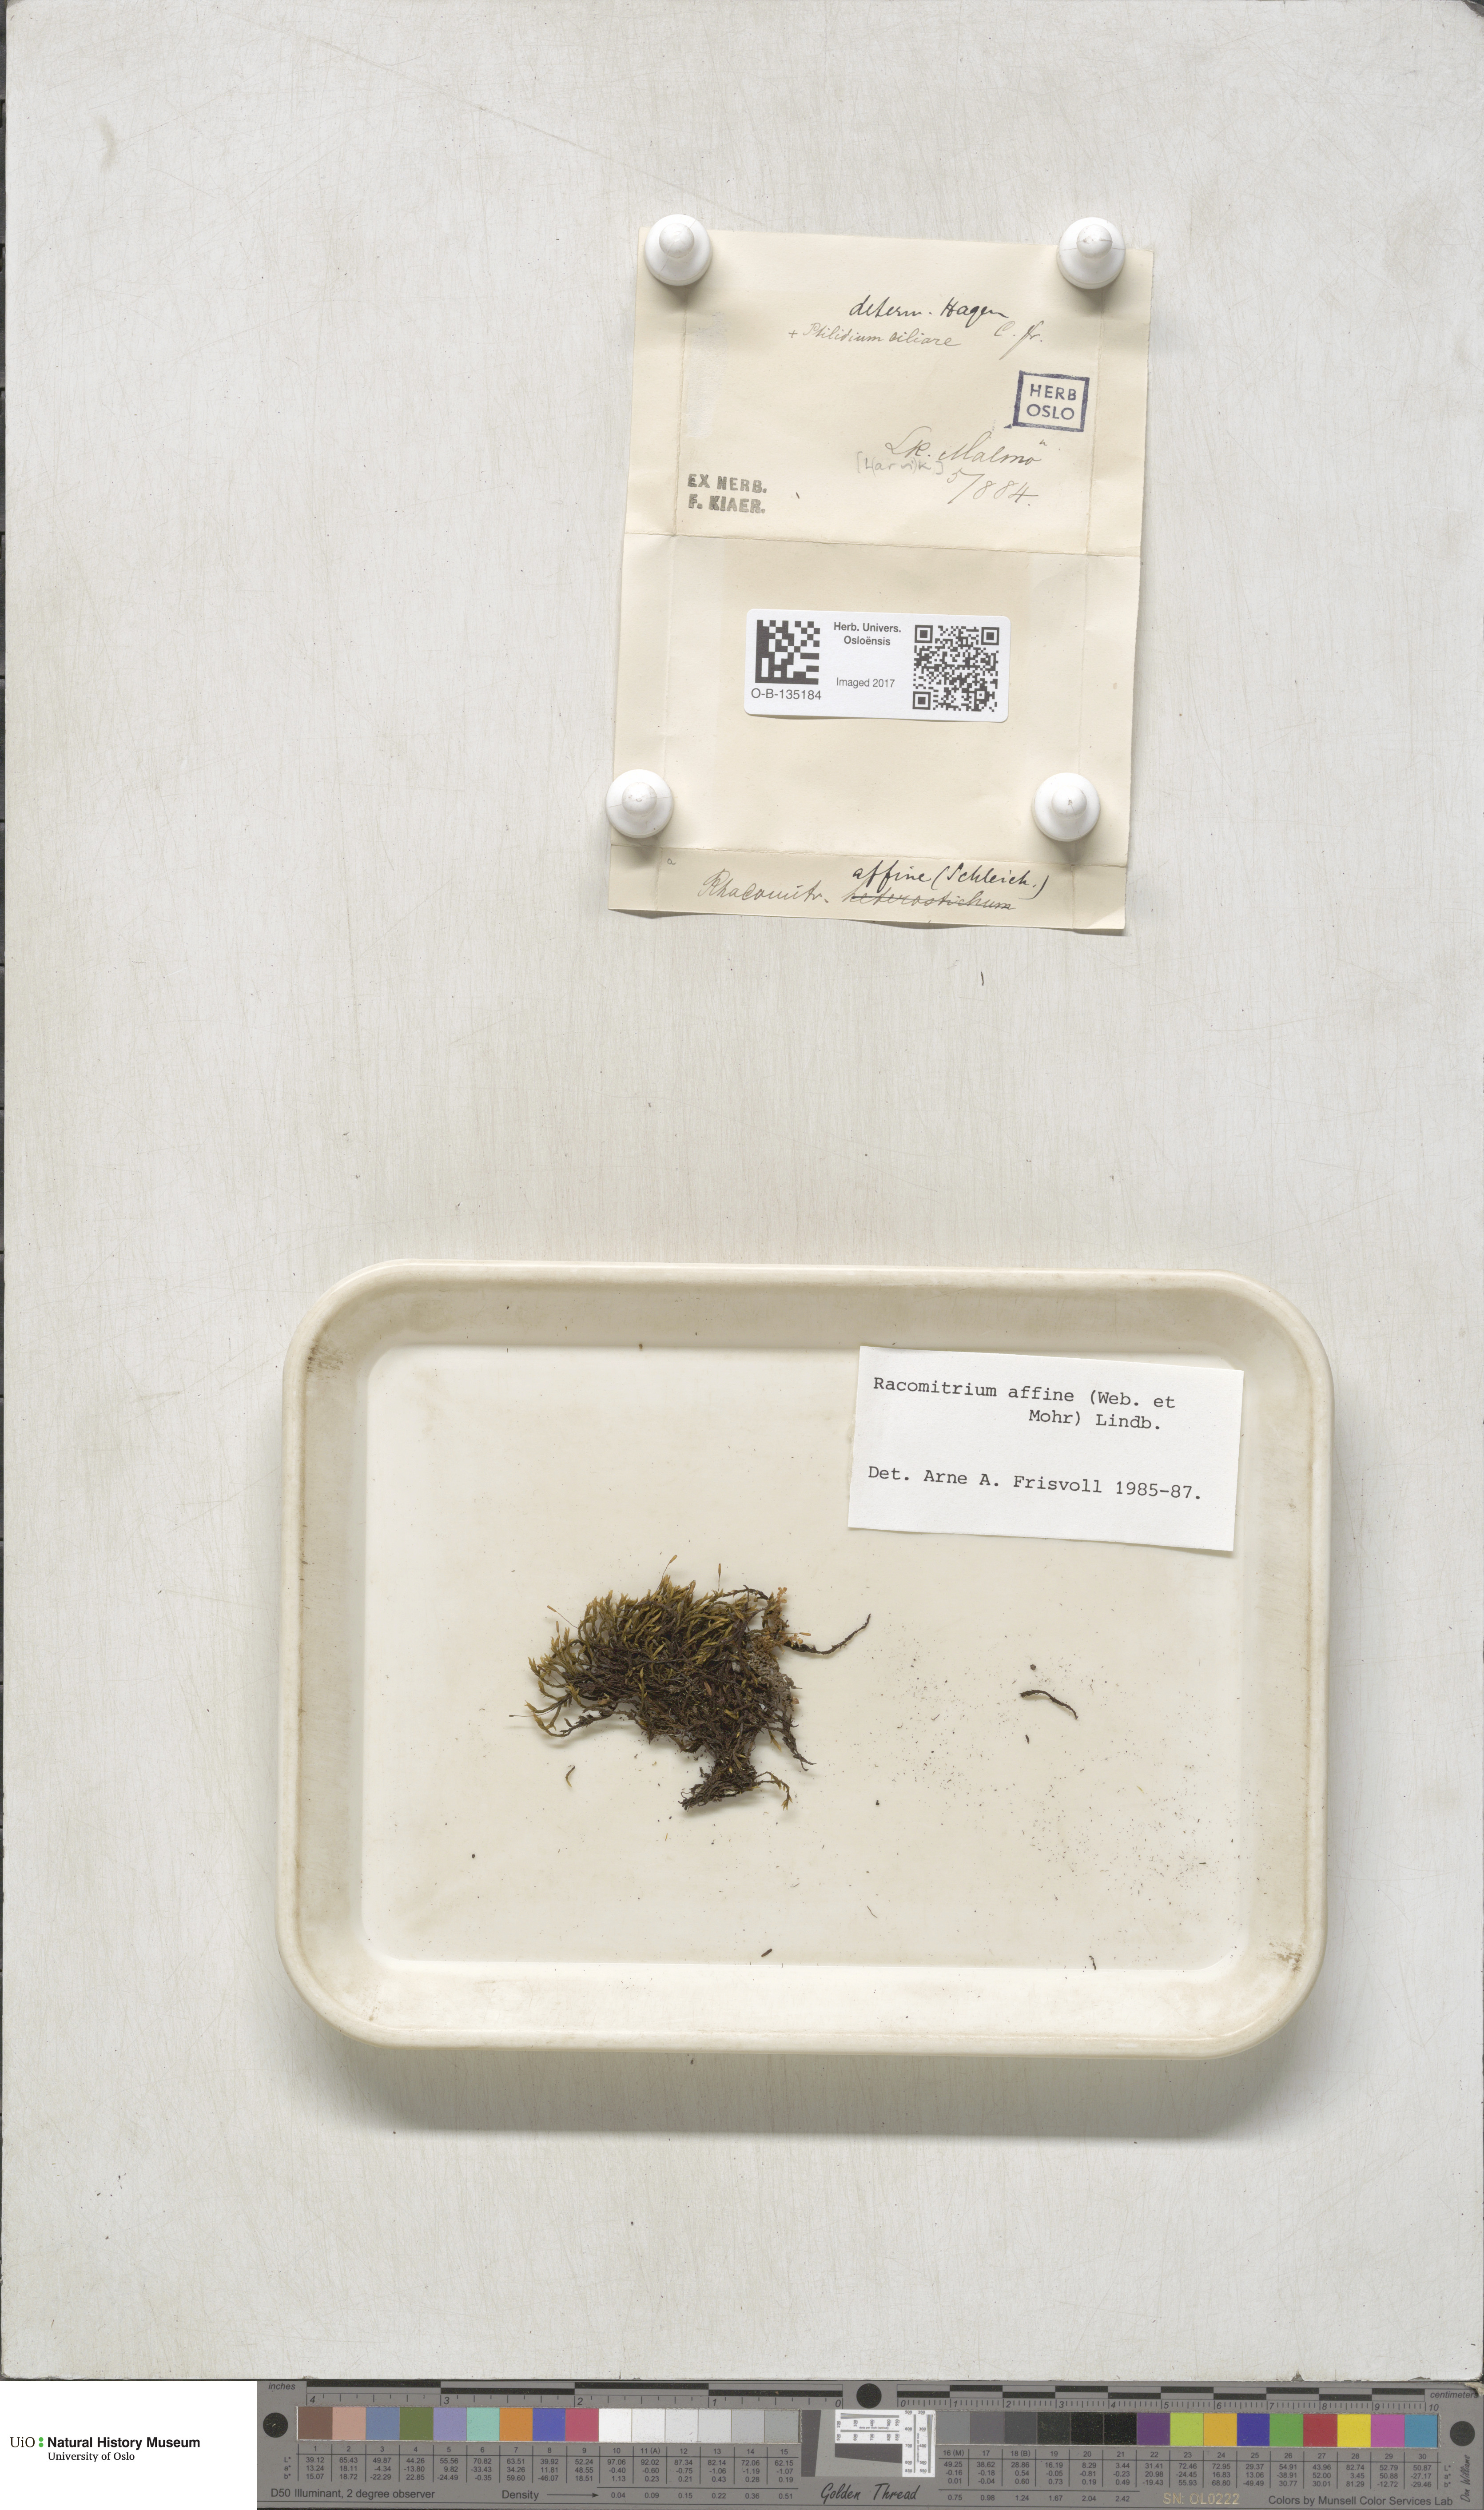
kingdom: Plantae
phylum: Bryophyta
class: Bryopsida
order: Grimmiales
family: Grimmiaceae
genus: Bucklandiella
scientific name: Bucklandiella affinis
